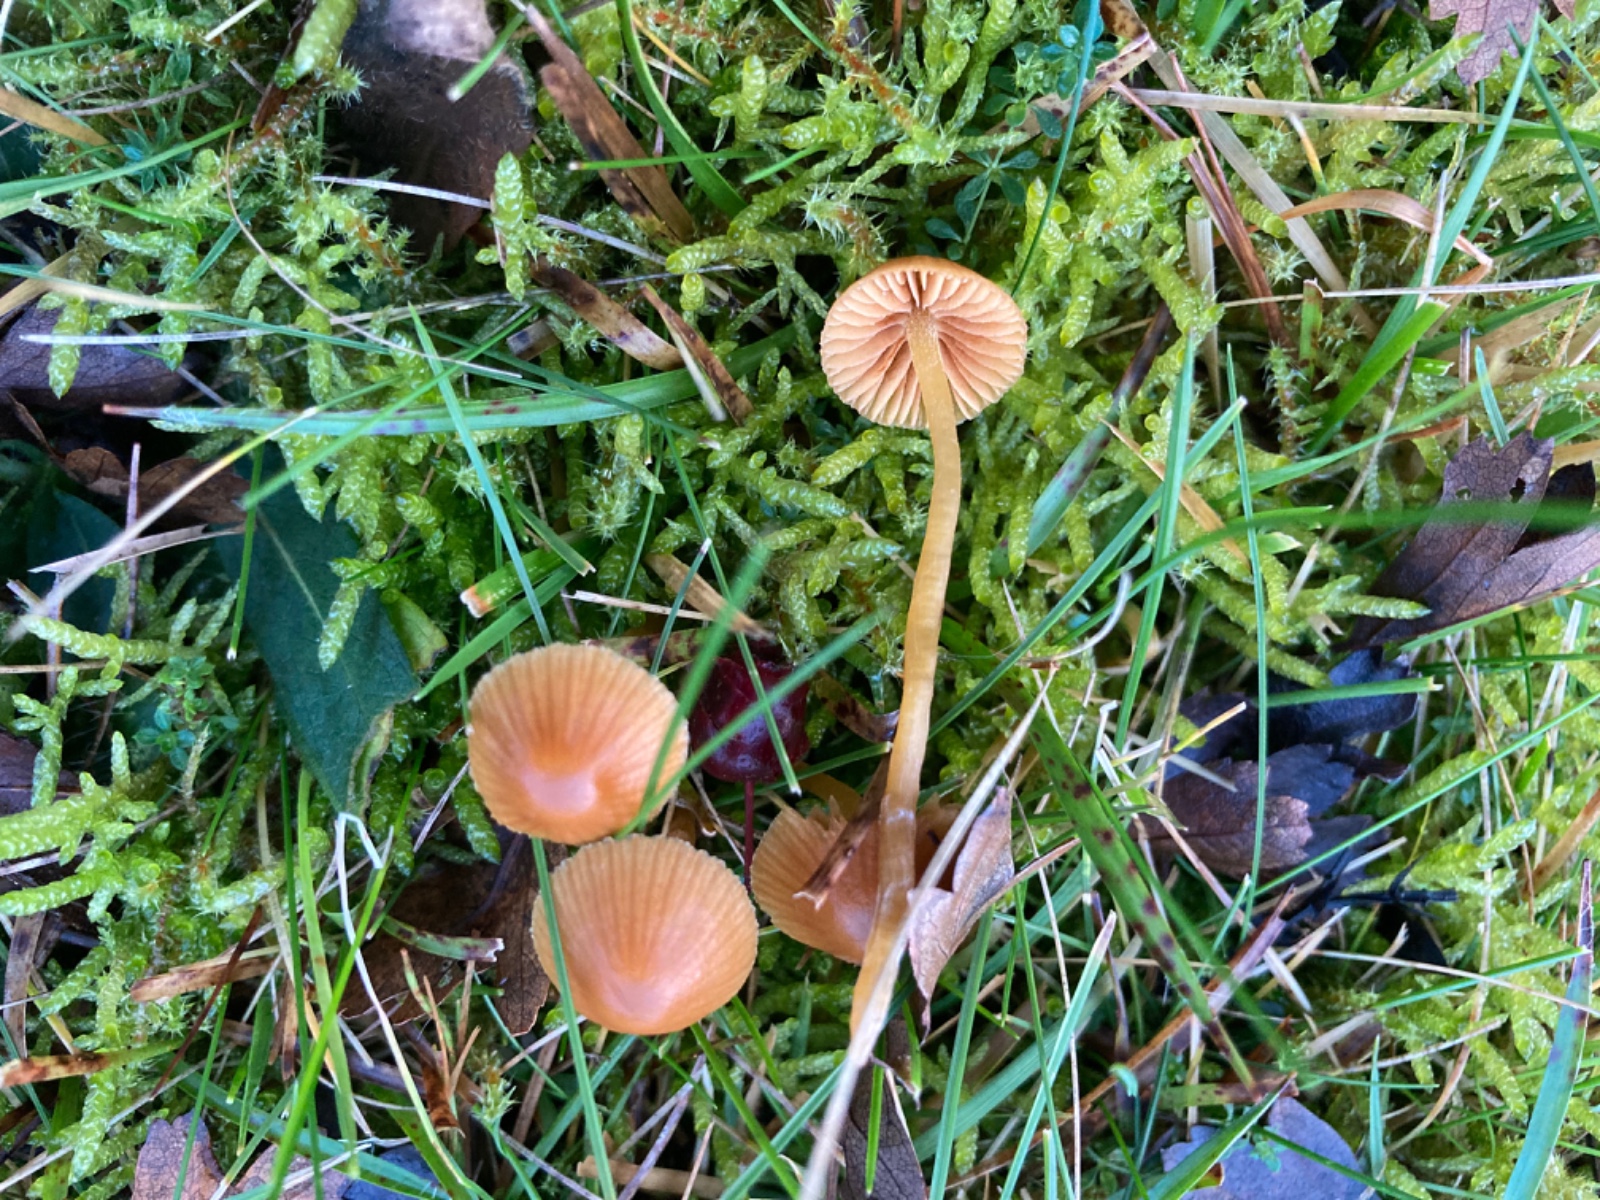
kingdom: Fungi
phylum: Basidiomycota
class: Agaricomycetes
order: Agaricales
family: Hymenogastraceae
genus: Galerina
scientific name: Galerina
